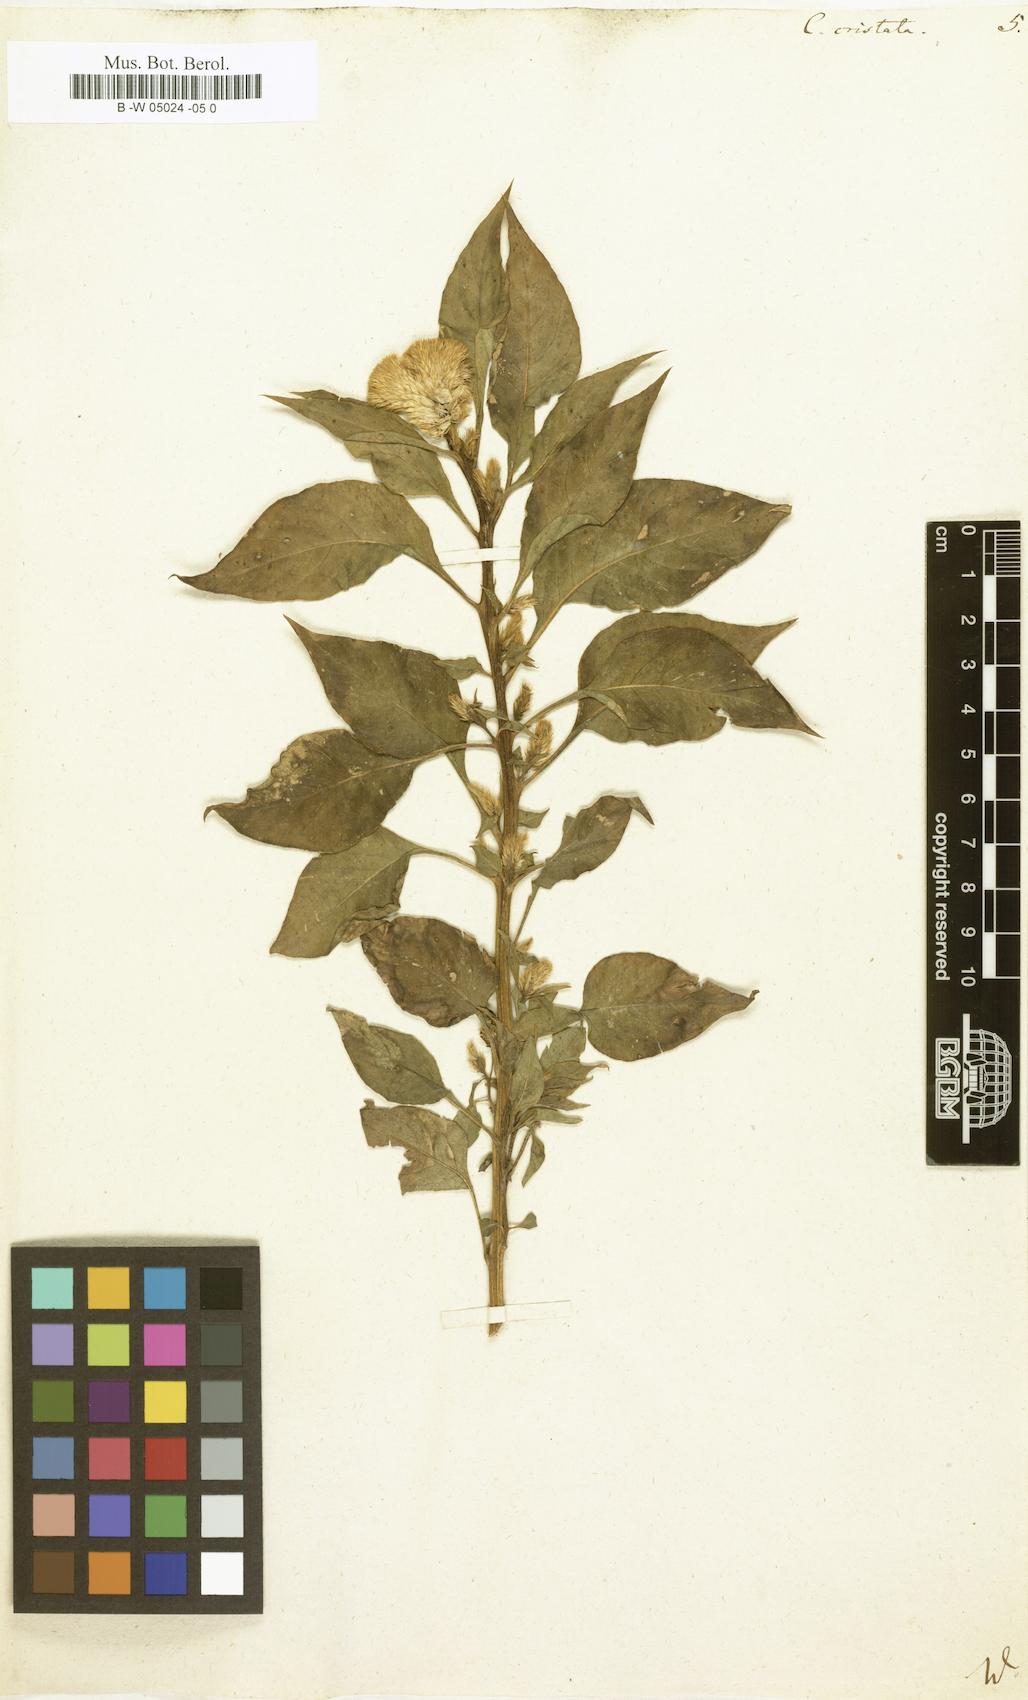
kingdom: Plantae
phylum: Tracheophyta
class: Magnoliopsida
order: Caryophyllales
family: Amaranthaceae
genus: Celosia
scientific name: Celosia argentea
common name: Feather cockscomb
